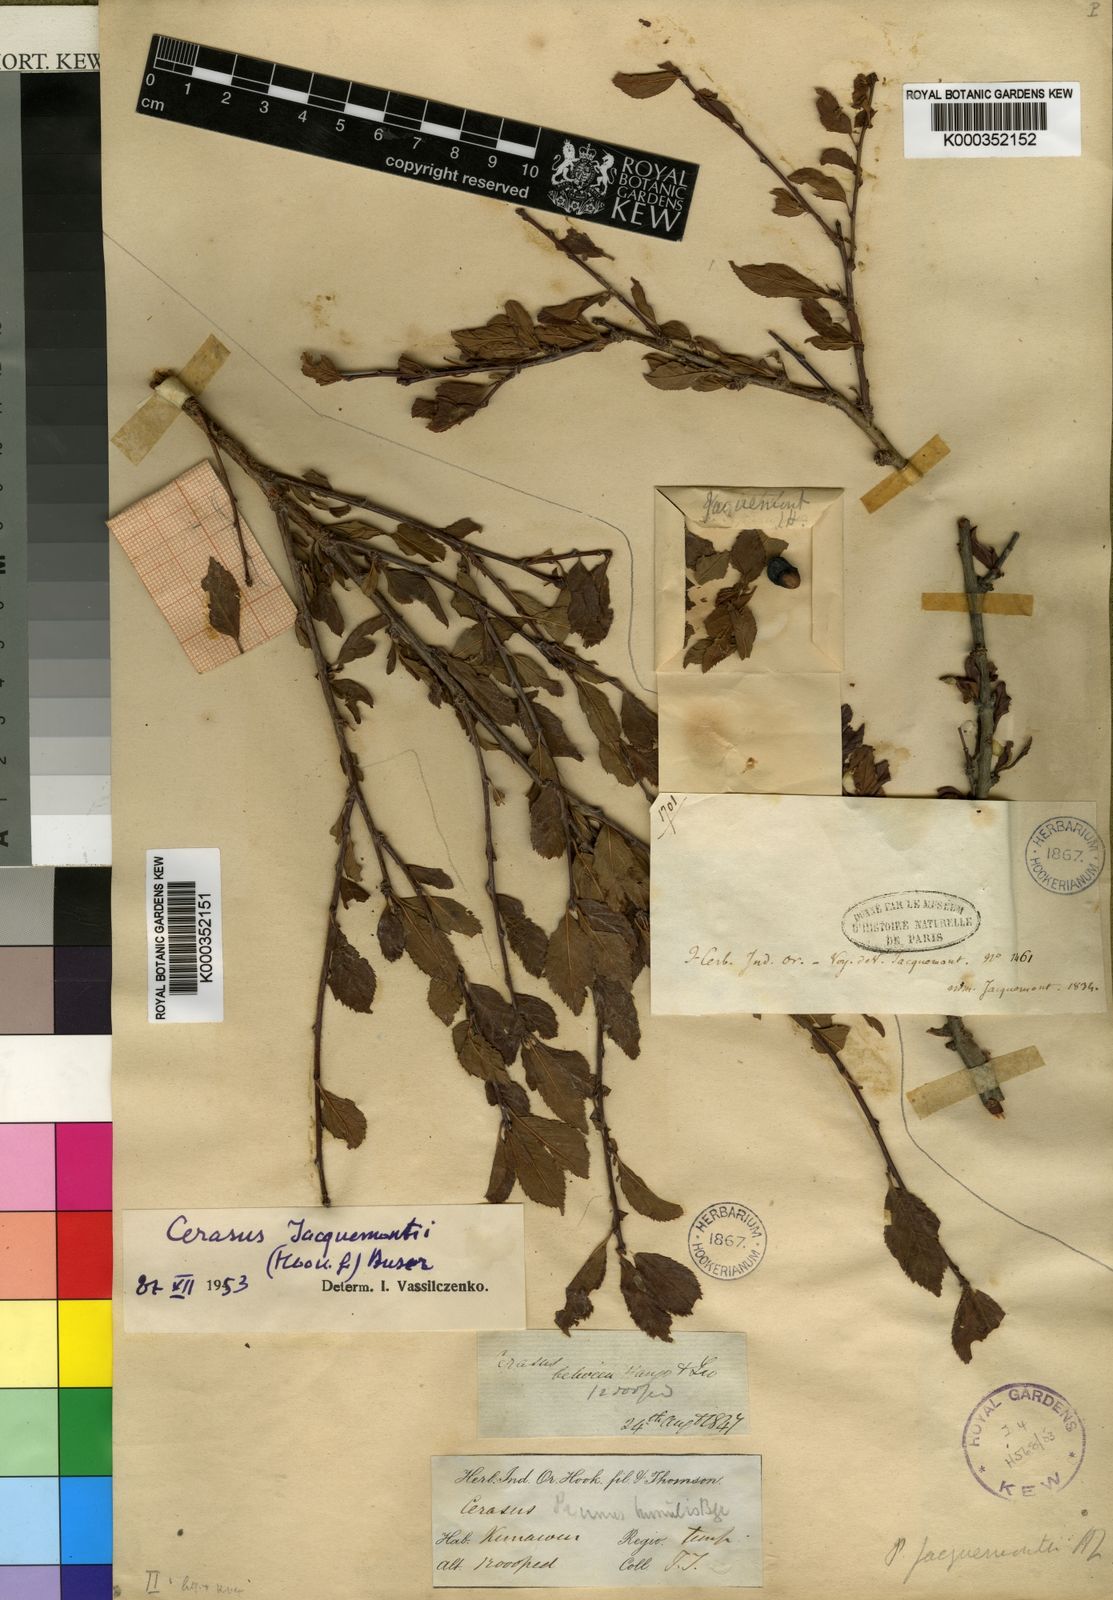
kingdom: Plantae
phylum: Tracheophyta
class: Magnoliopsida
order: Rosales
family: Rosaceae
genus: Prunus
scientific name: Prunus
